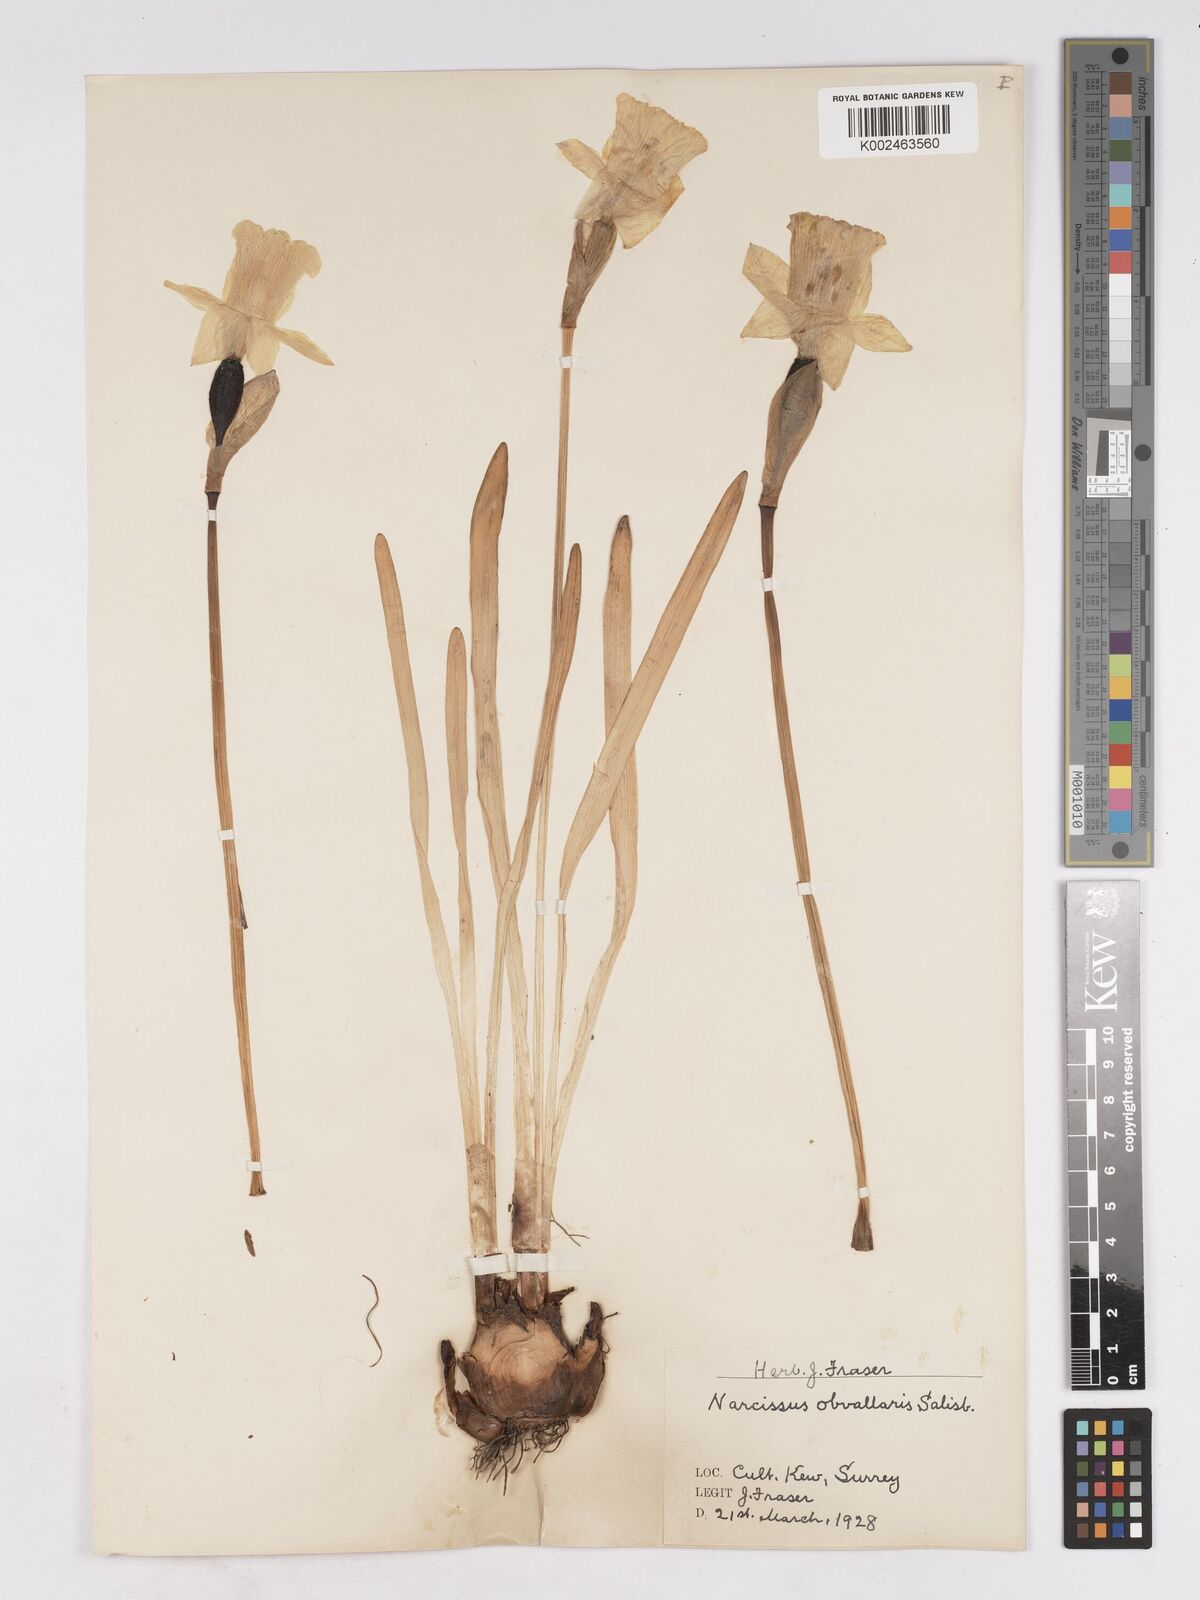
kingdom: Plantae
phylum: Tracheophyta
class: Liliopsida
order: Asparagales
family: Amaryllidaceae
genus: Narcissus
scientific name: Narcissus hispanicus
